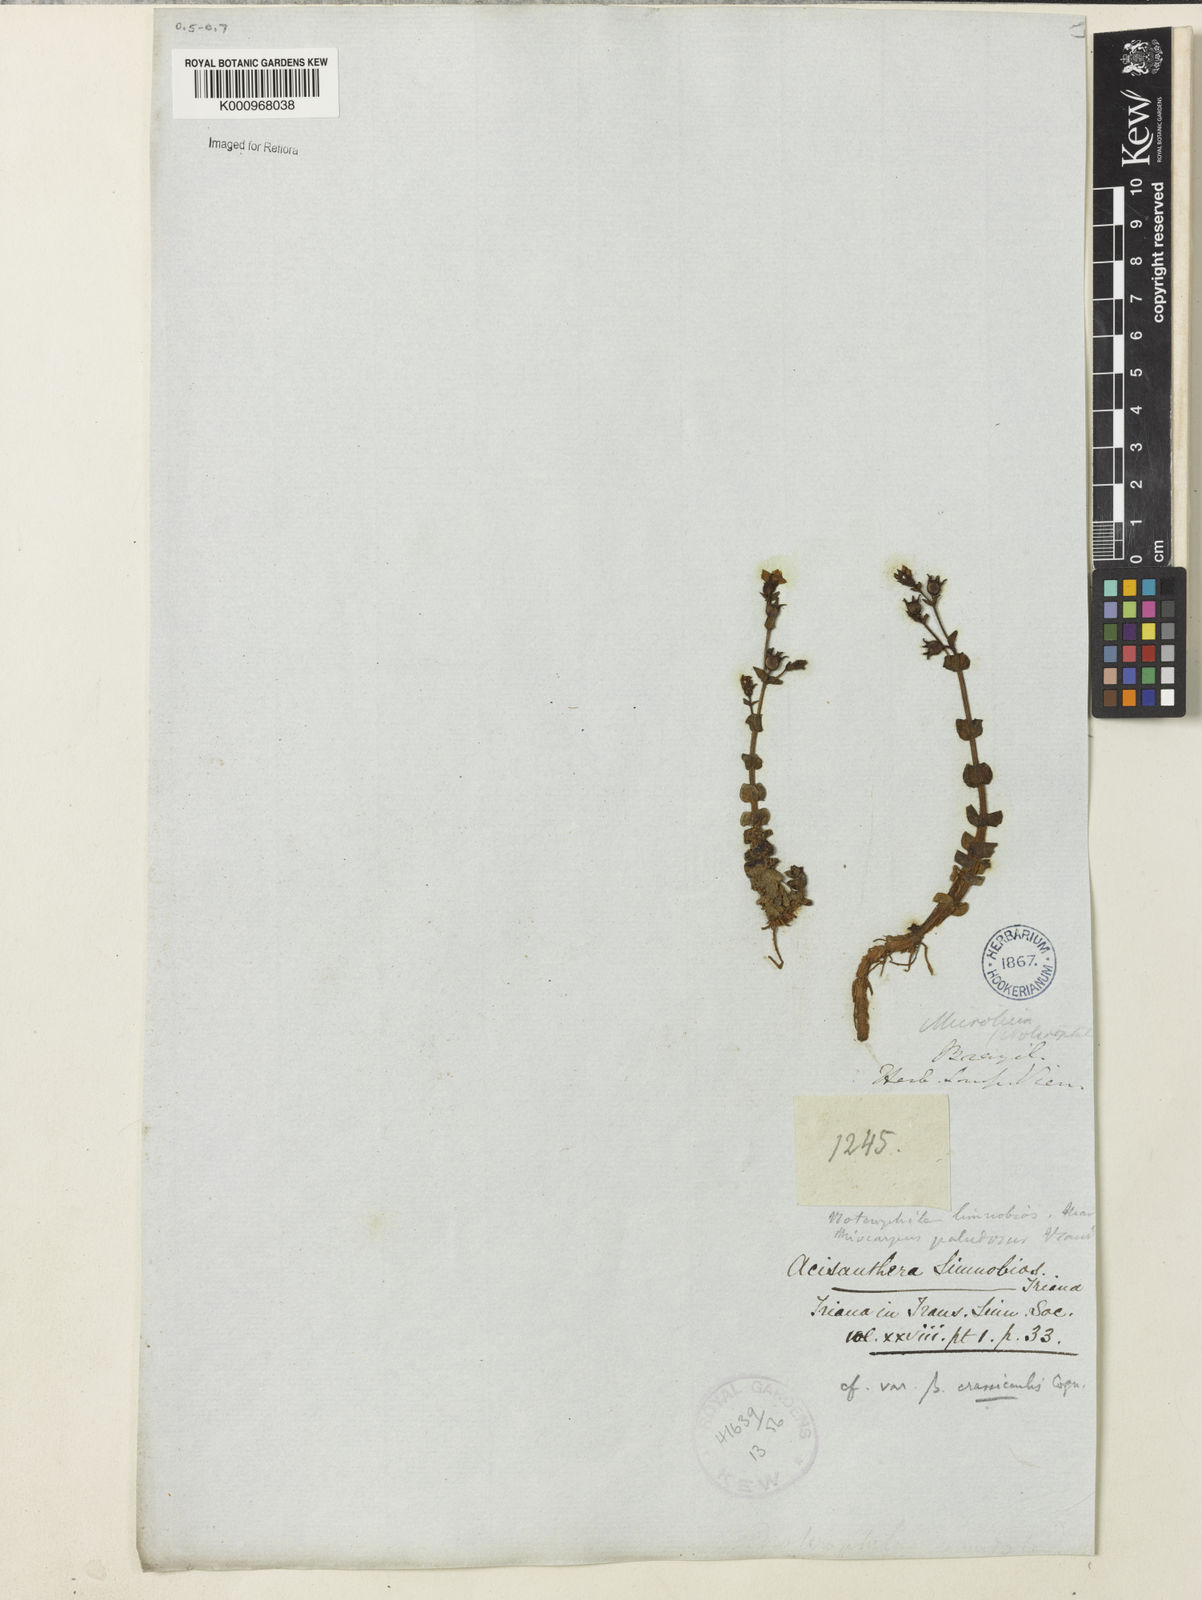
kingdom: Plantae
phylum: Tracheophyta
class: Magnoliopsida
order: Myrtales
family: Melastomataceae
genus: Acisanthera
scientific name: Acisanthera
